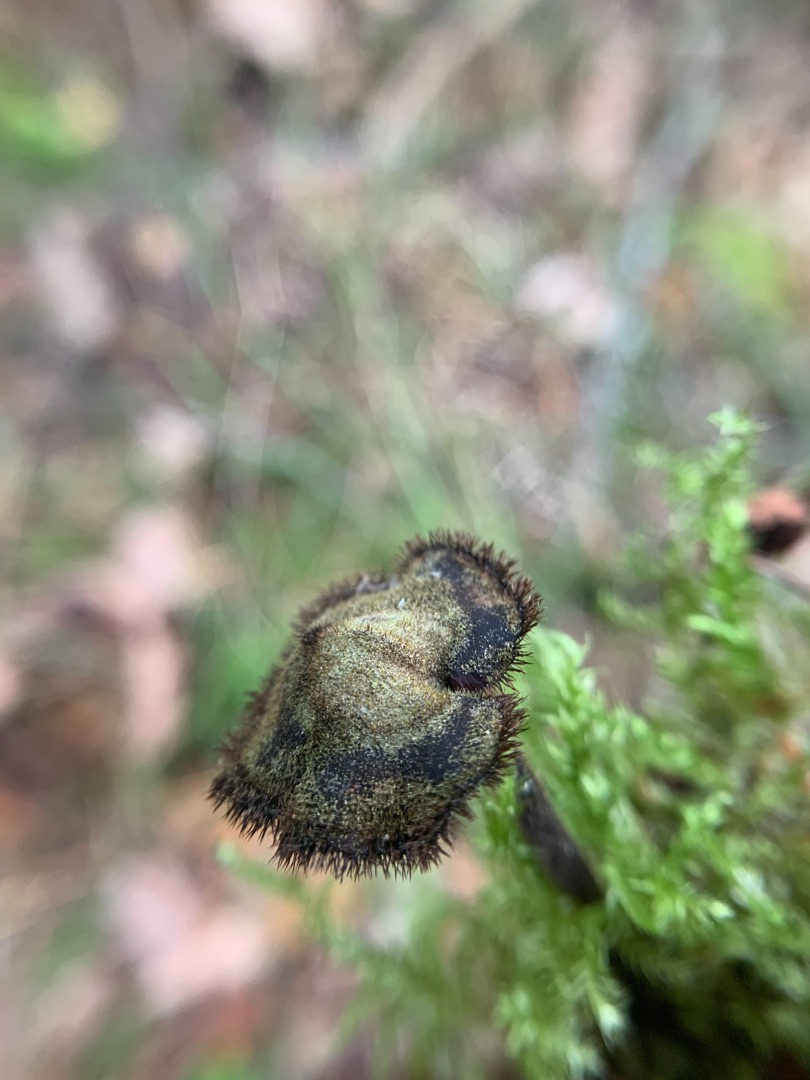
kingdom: Fungi
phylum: Basidiomycota
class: Agaricomycetes
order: Russulales
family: Auriscalpiaceae
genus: Auriscalpium
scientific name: Auriscalpium vulgare
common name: Koglepigsvamp
